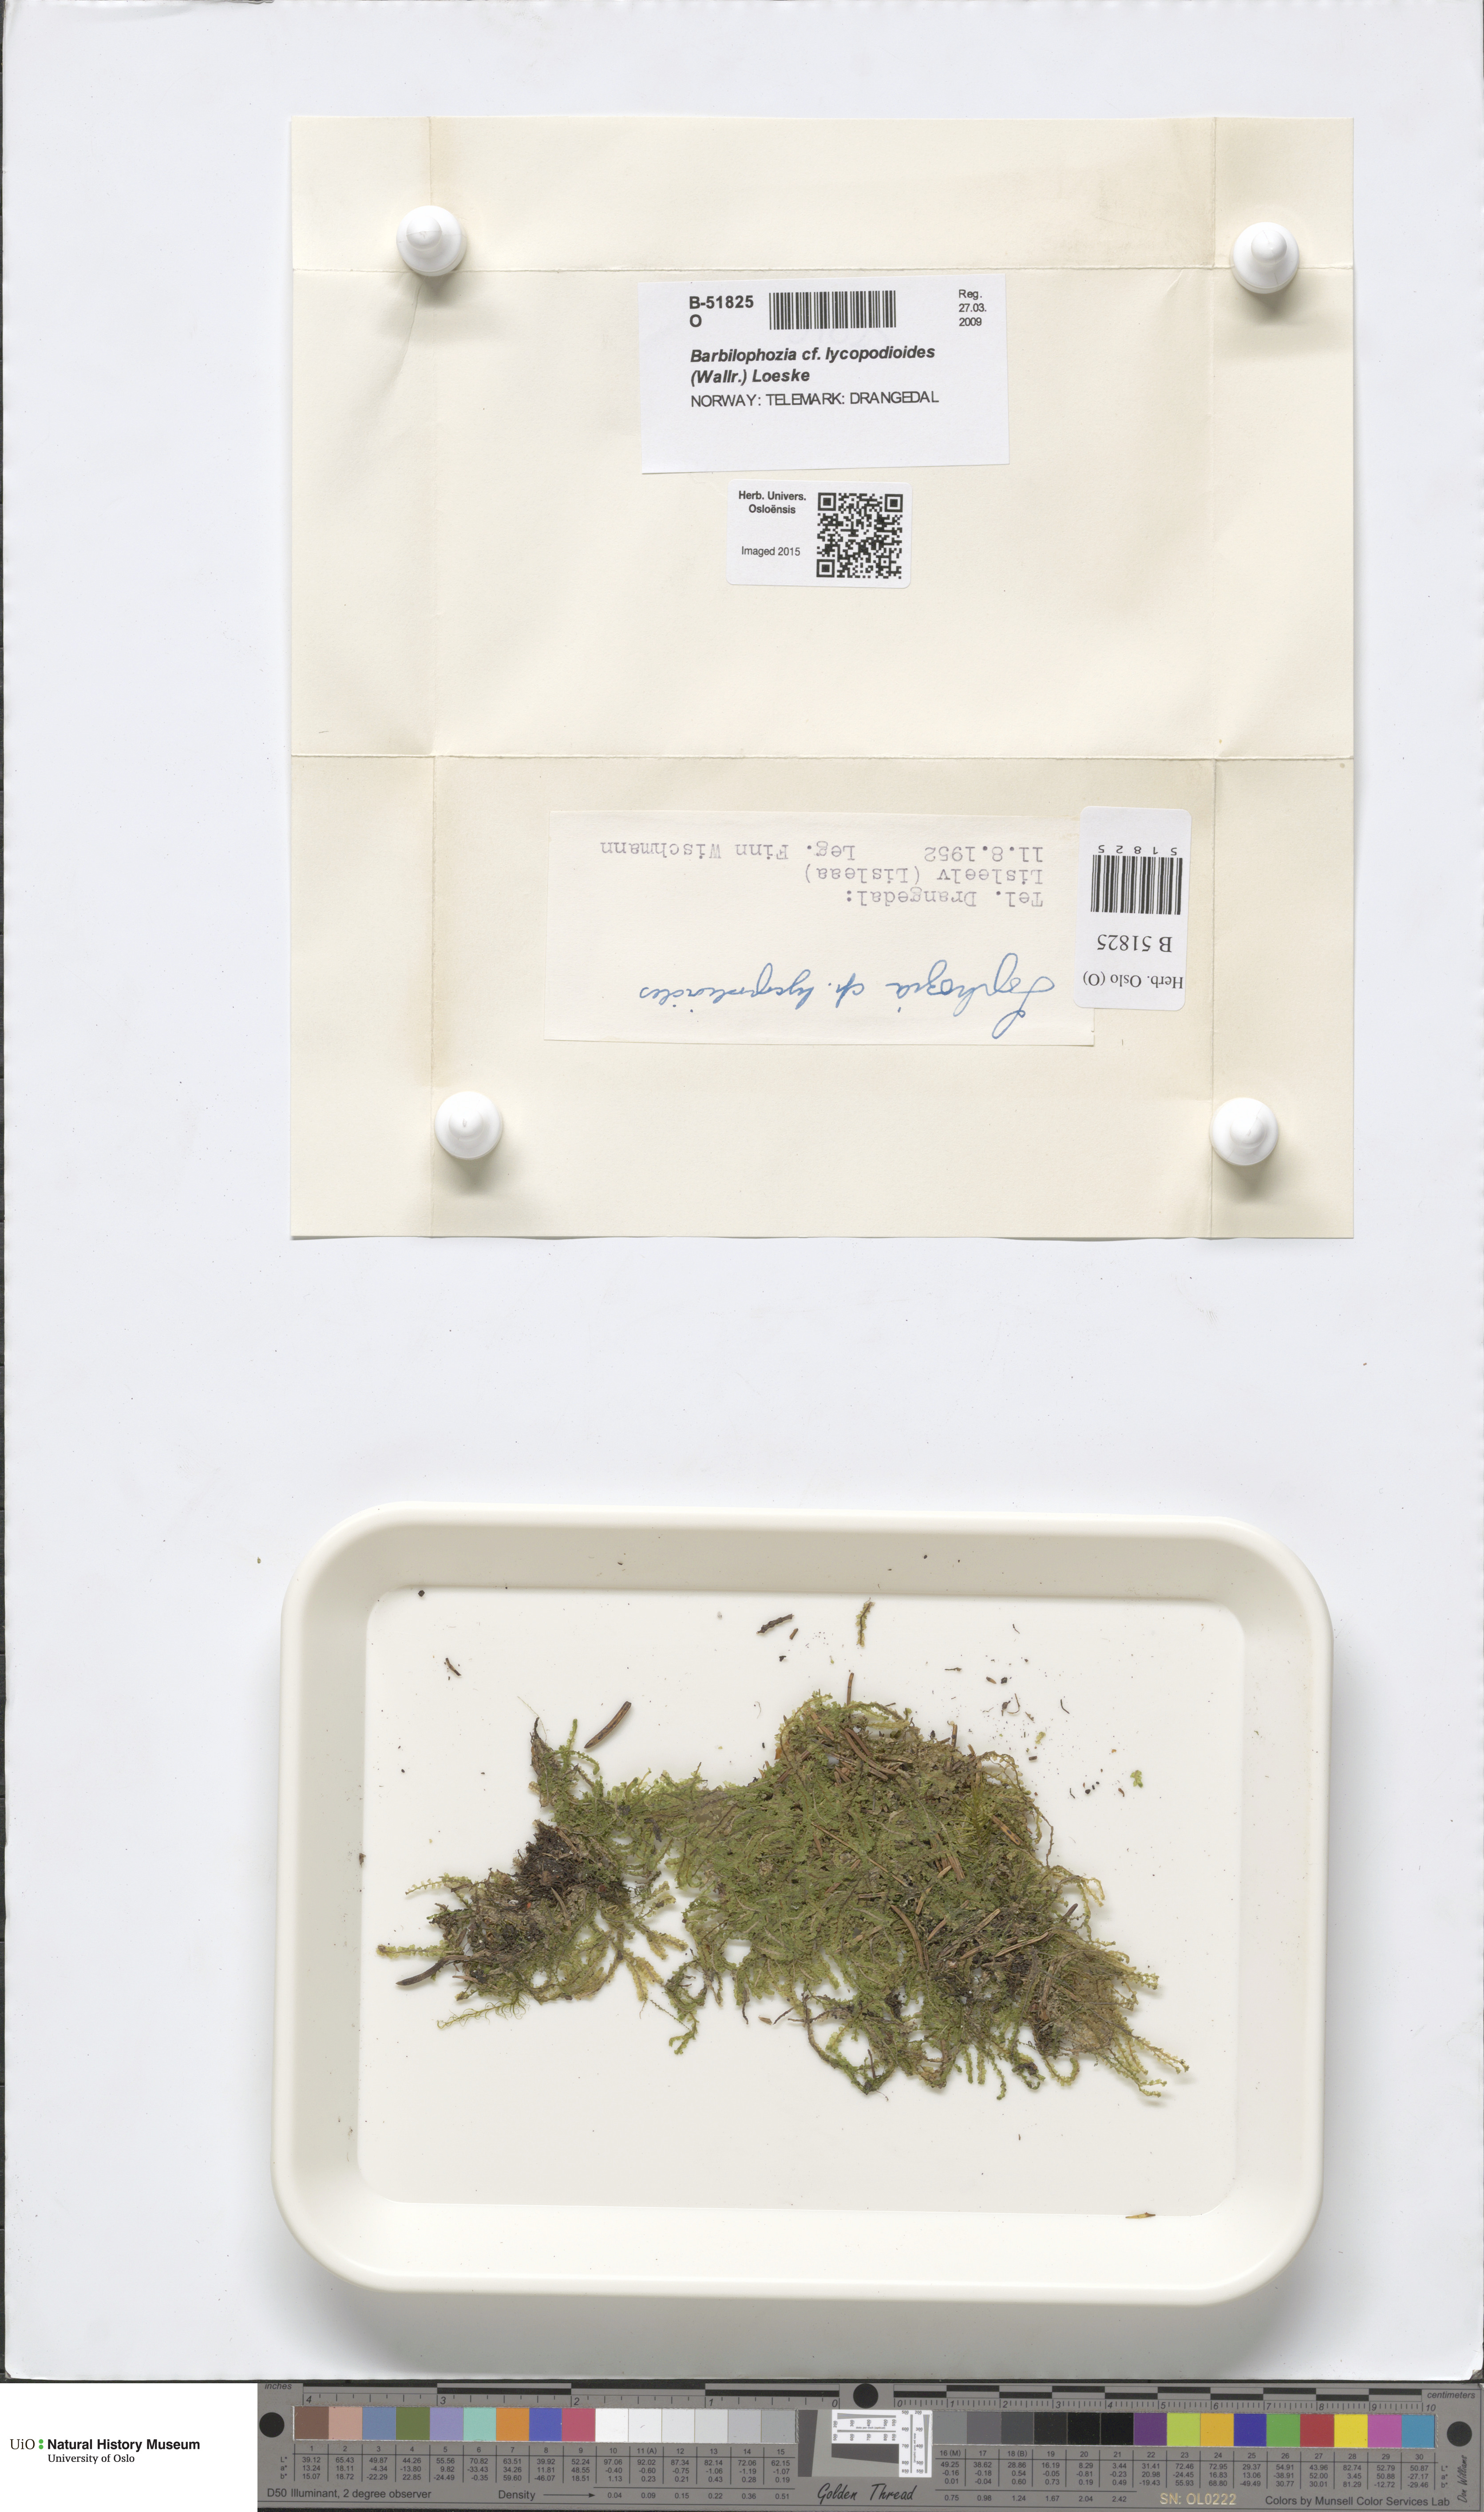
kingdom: Plantae
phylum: Marchantiophyta
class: Jungermanniopsida
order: Jungermanniales
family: Anastrophyllaceae
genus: Barbilophozia
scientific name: Barbilophozia lycopodioides
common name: Greater pawwort
